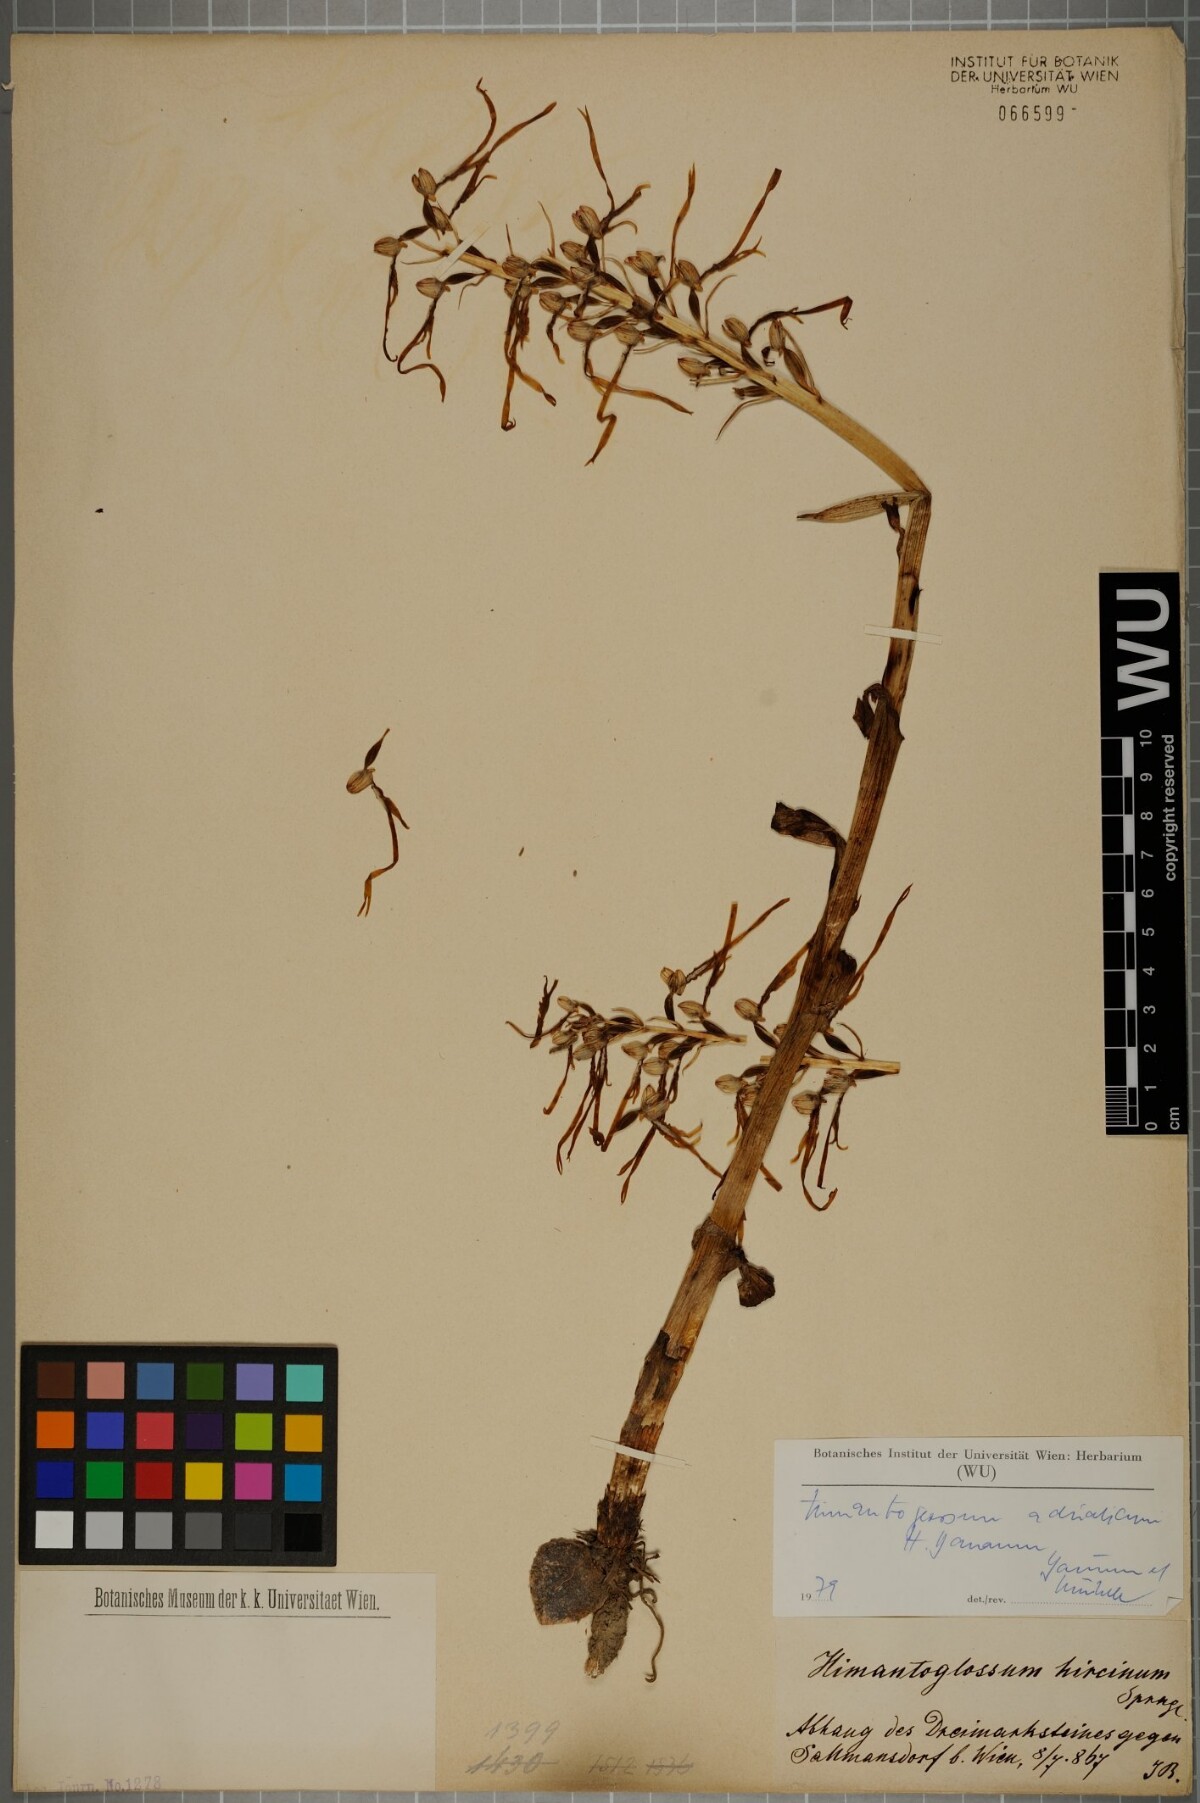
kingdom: Plantae
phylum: Tracheophyta
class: Liliopsida
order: Asparagales
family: Orchidaceae
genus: Himantoglossum
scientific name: Himantoglossum adriaticum
